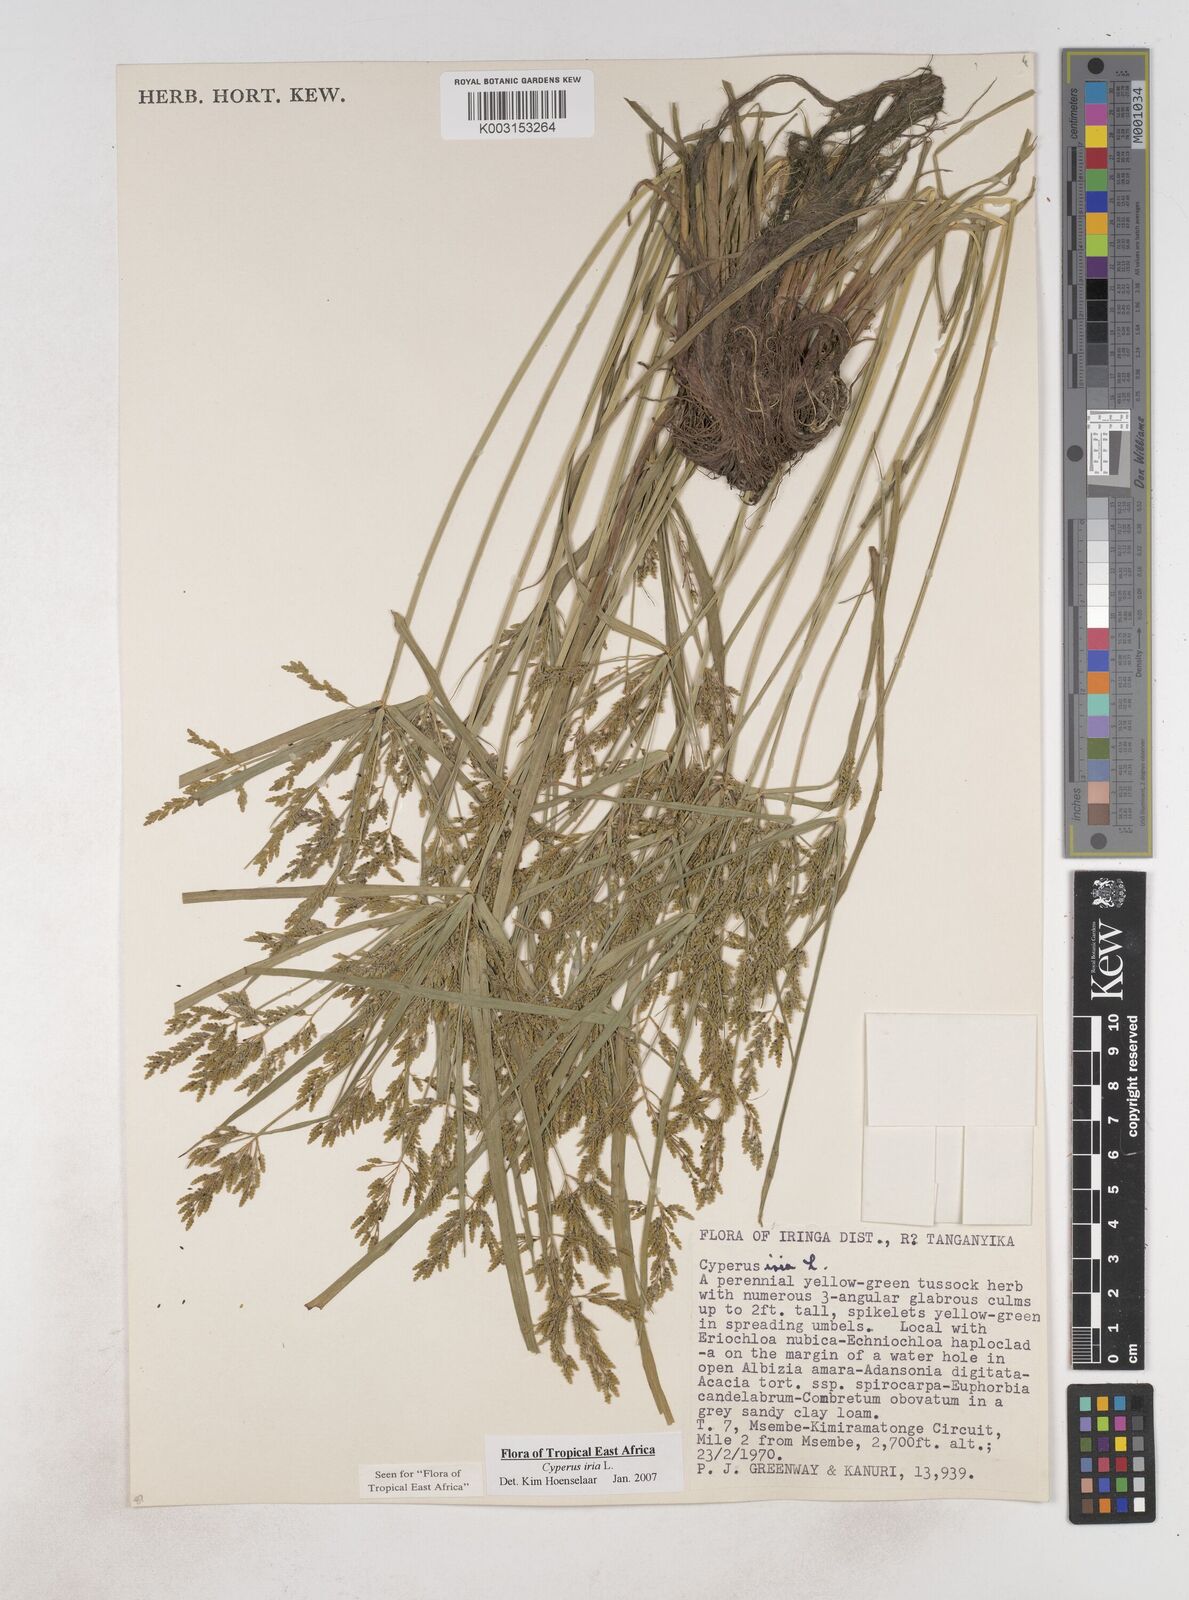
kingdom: Plantae
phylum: Tracheophyta
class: Liliopsida
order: Poales
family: Cyperaceae
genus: Cyperus
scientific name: Cyperus iria
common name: Ricefield flatsedge
